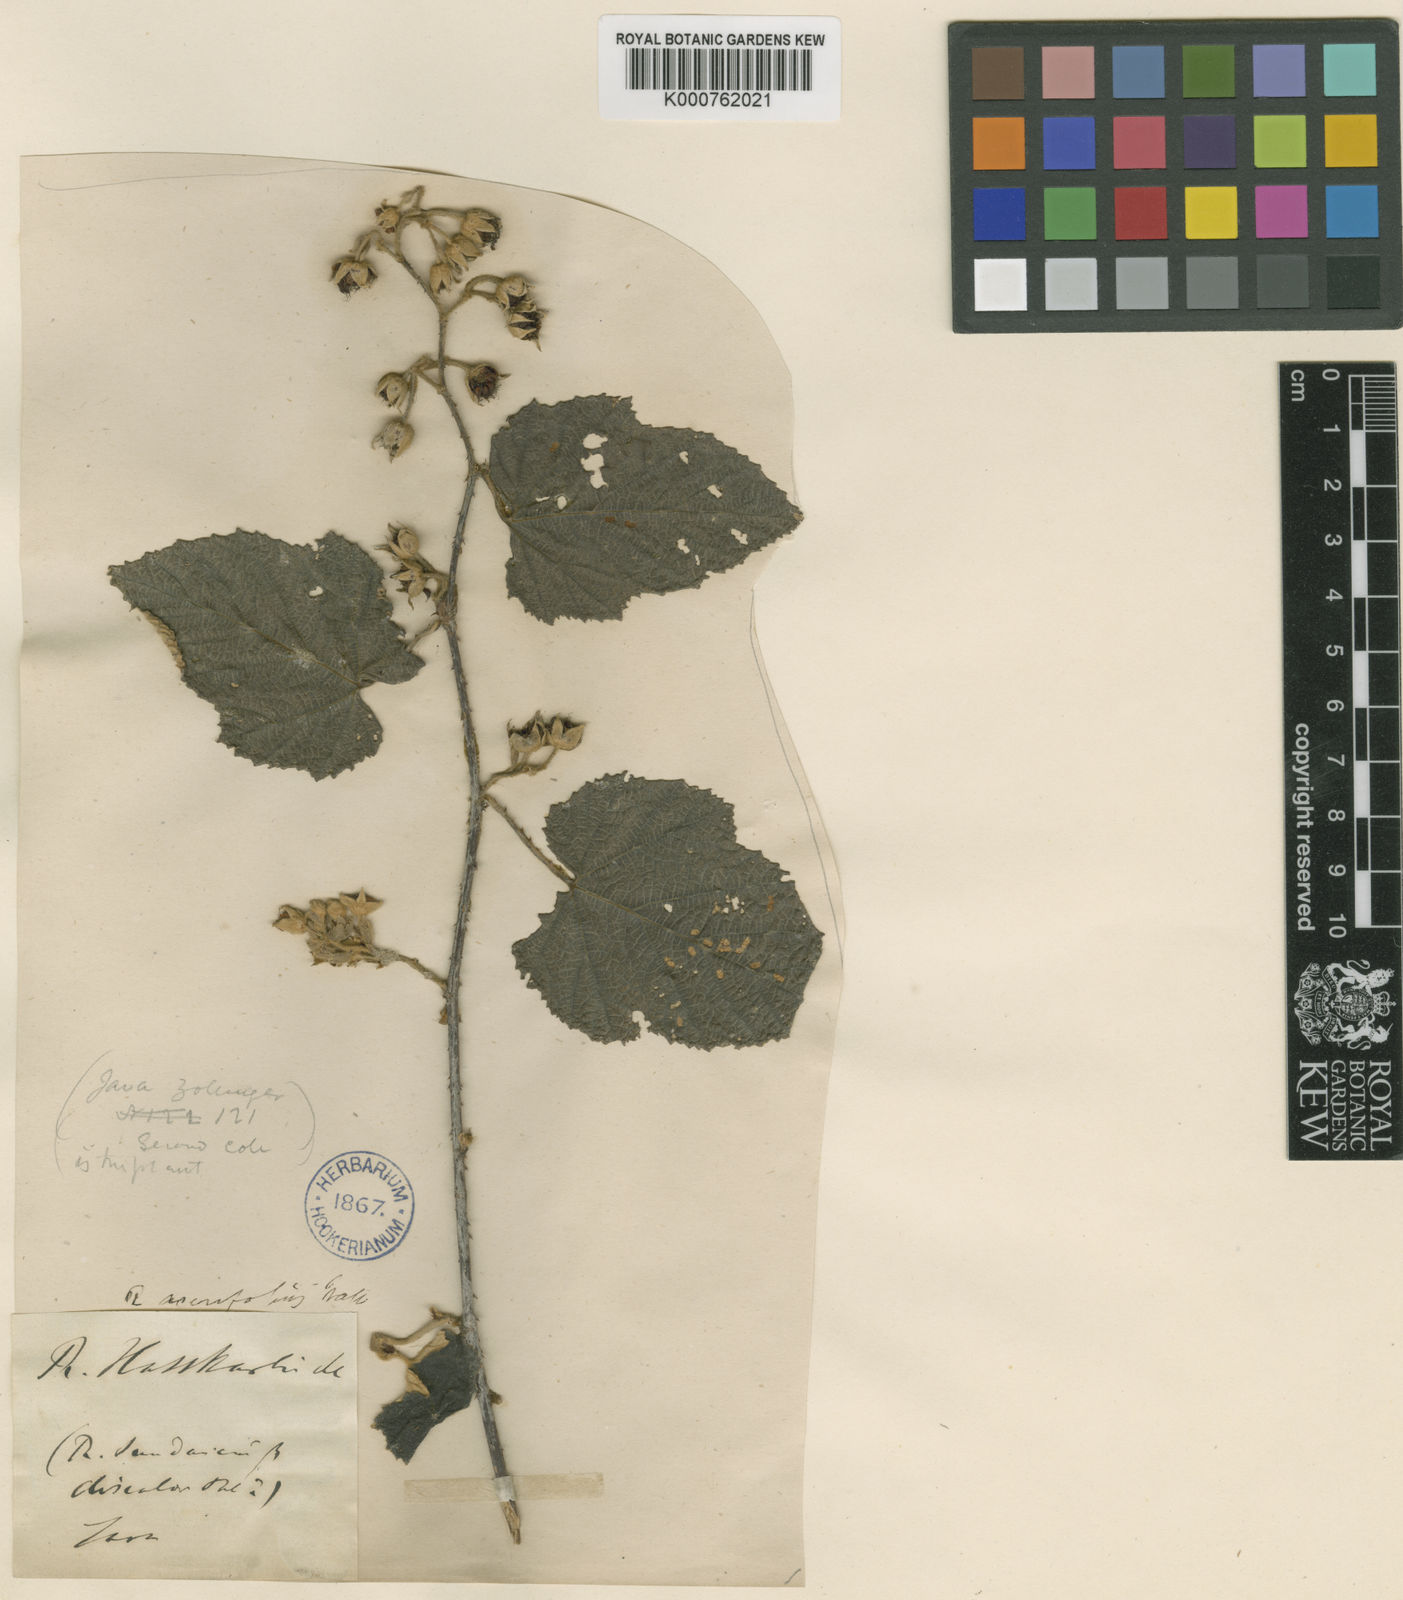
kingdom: Plantae
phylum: Tracheophyta
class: Magnoliopsida
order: Rosales
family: Rosaceae
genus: Rubus
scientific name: Rubus moluccanus
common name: Wild raspberry
